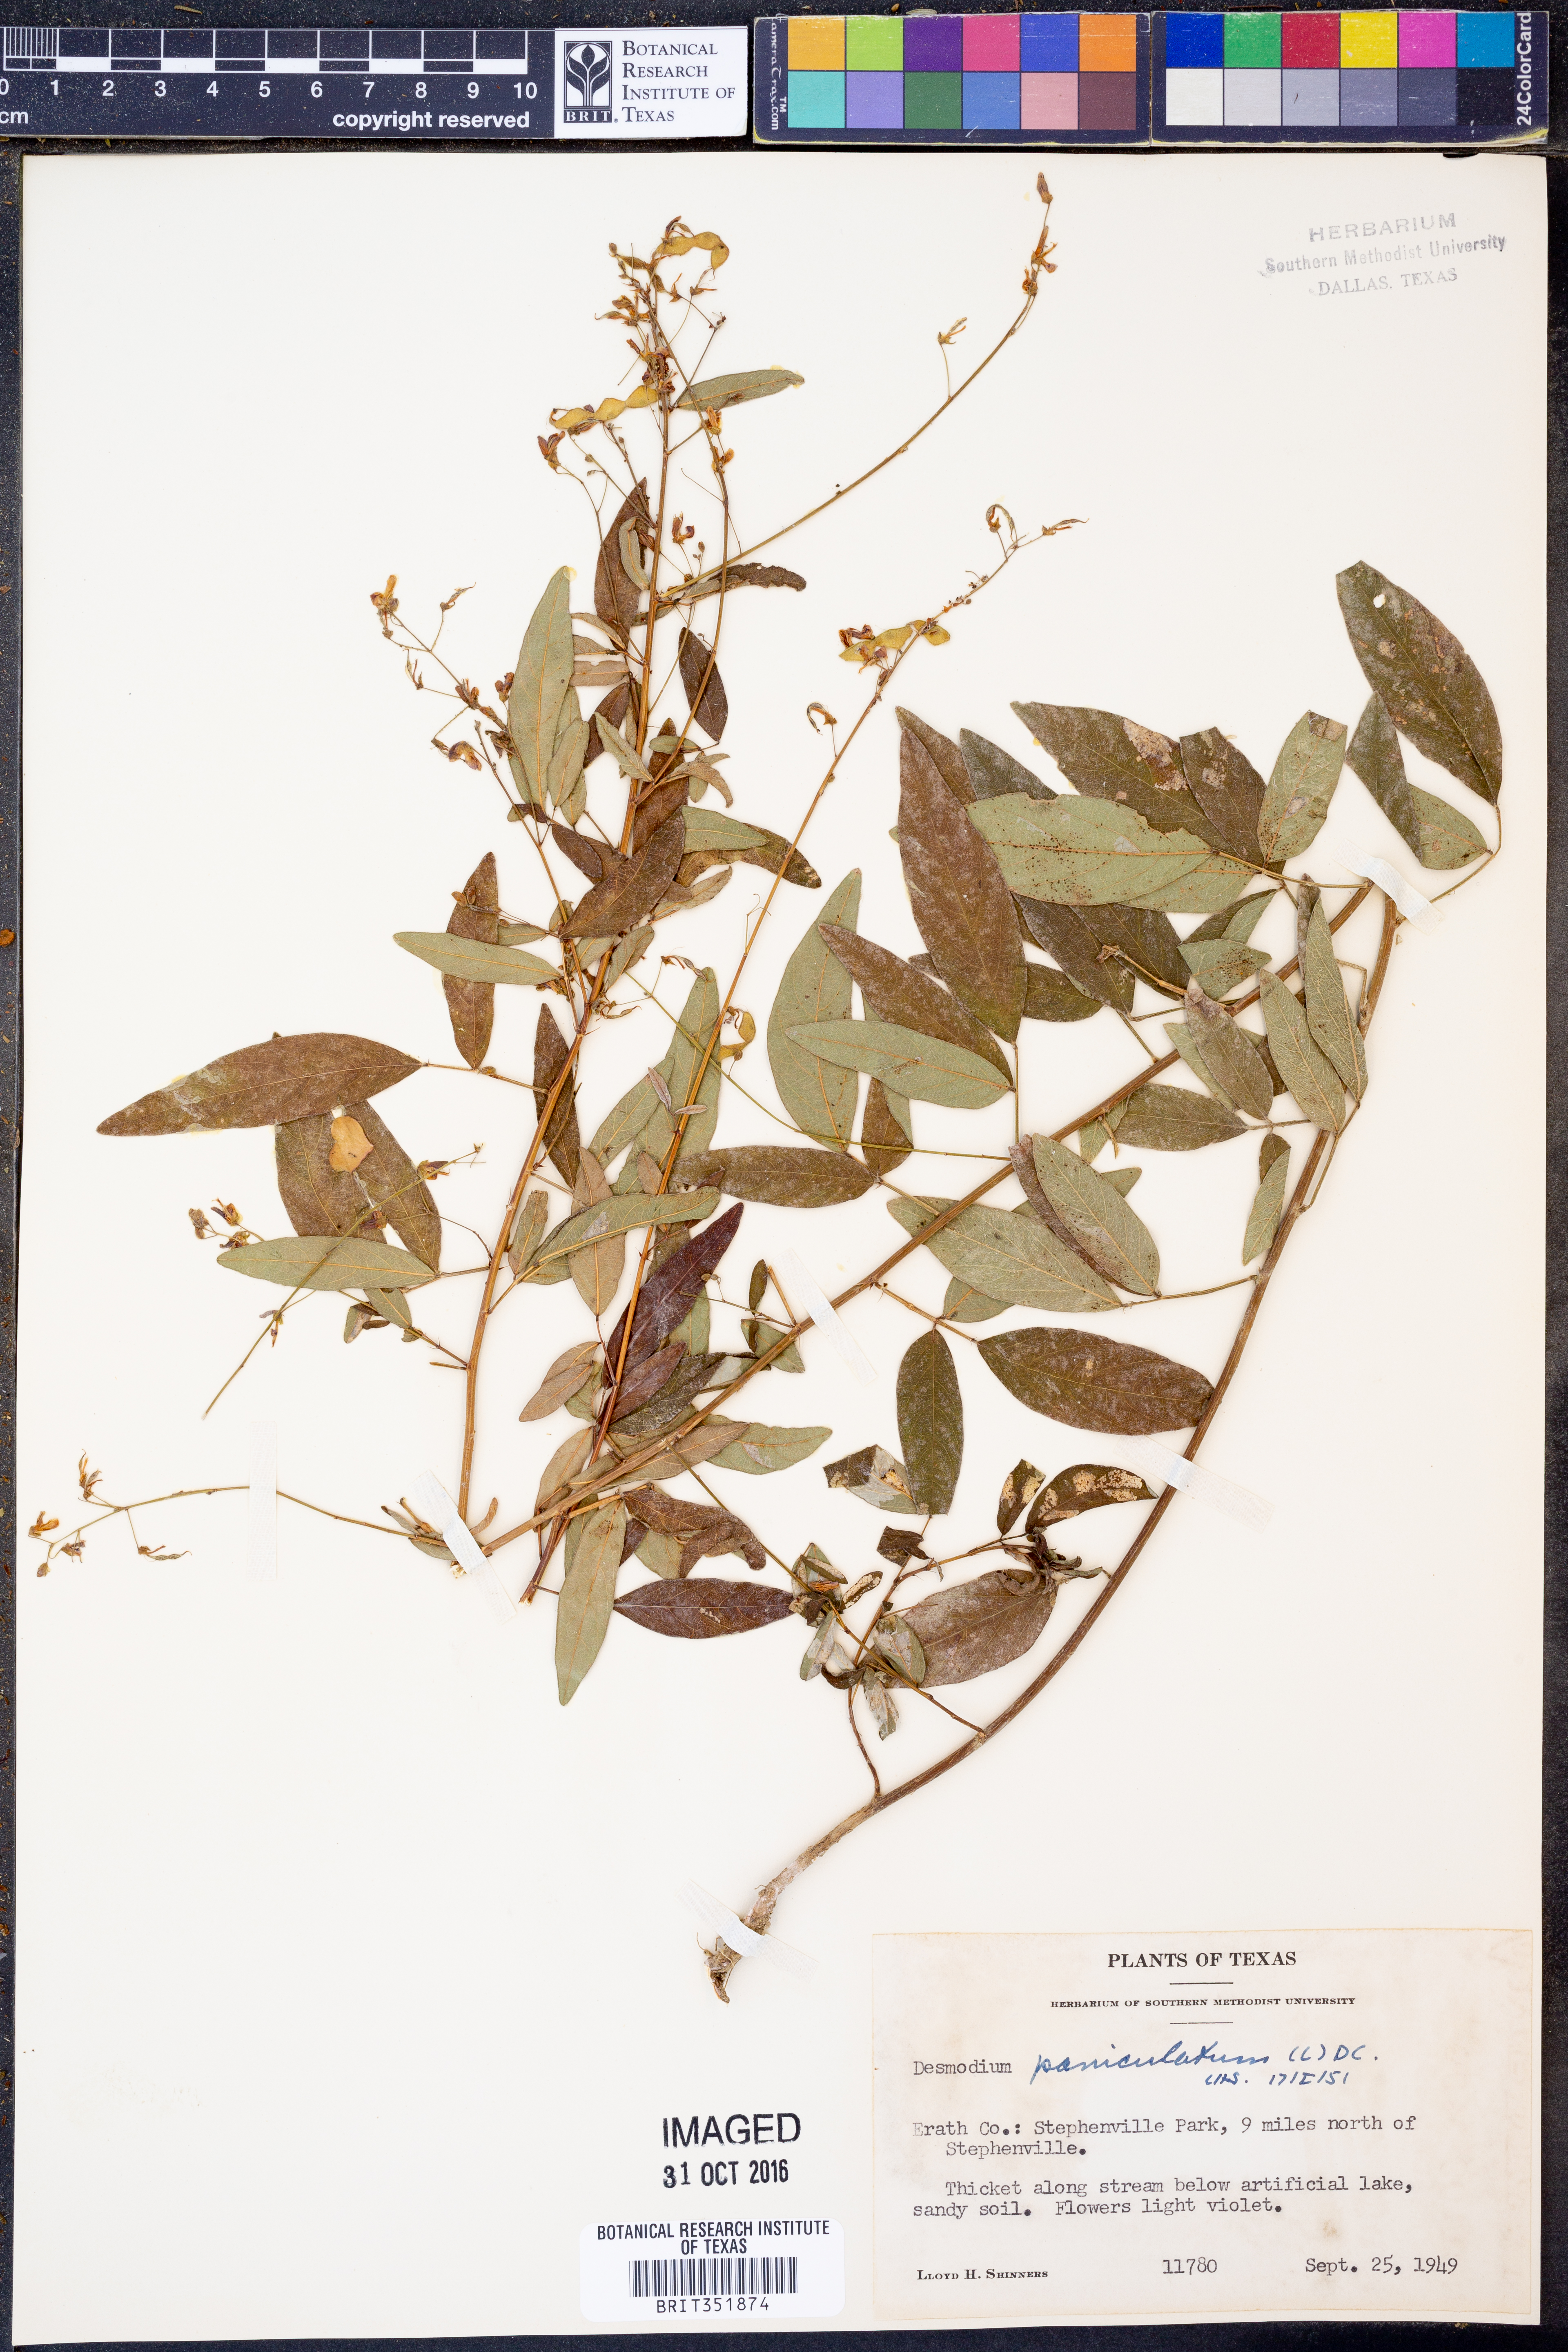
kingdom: Plantae
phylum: Tracheophyta
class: Magnoliopsida
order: Fabales
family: Fabaceae
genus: Desmodium
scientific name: Desmodium paniculatum
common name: Panicled tick-clover
